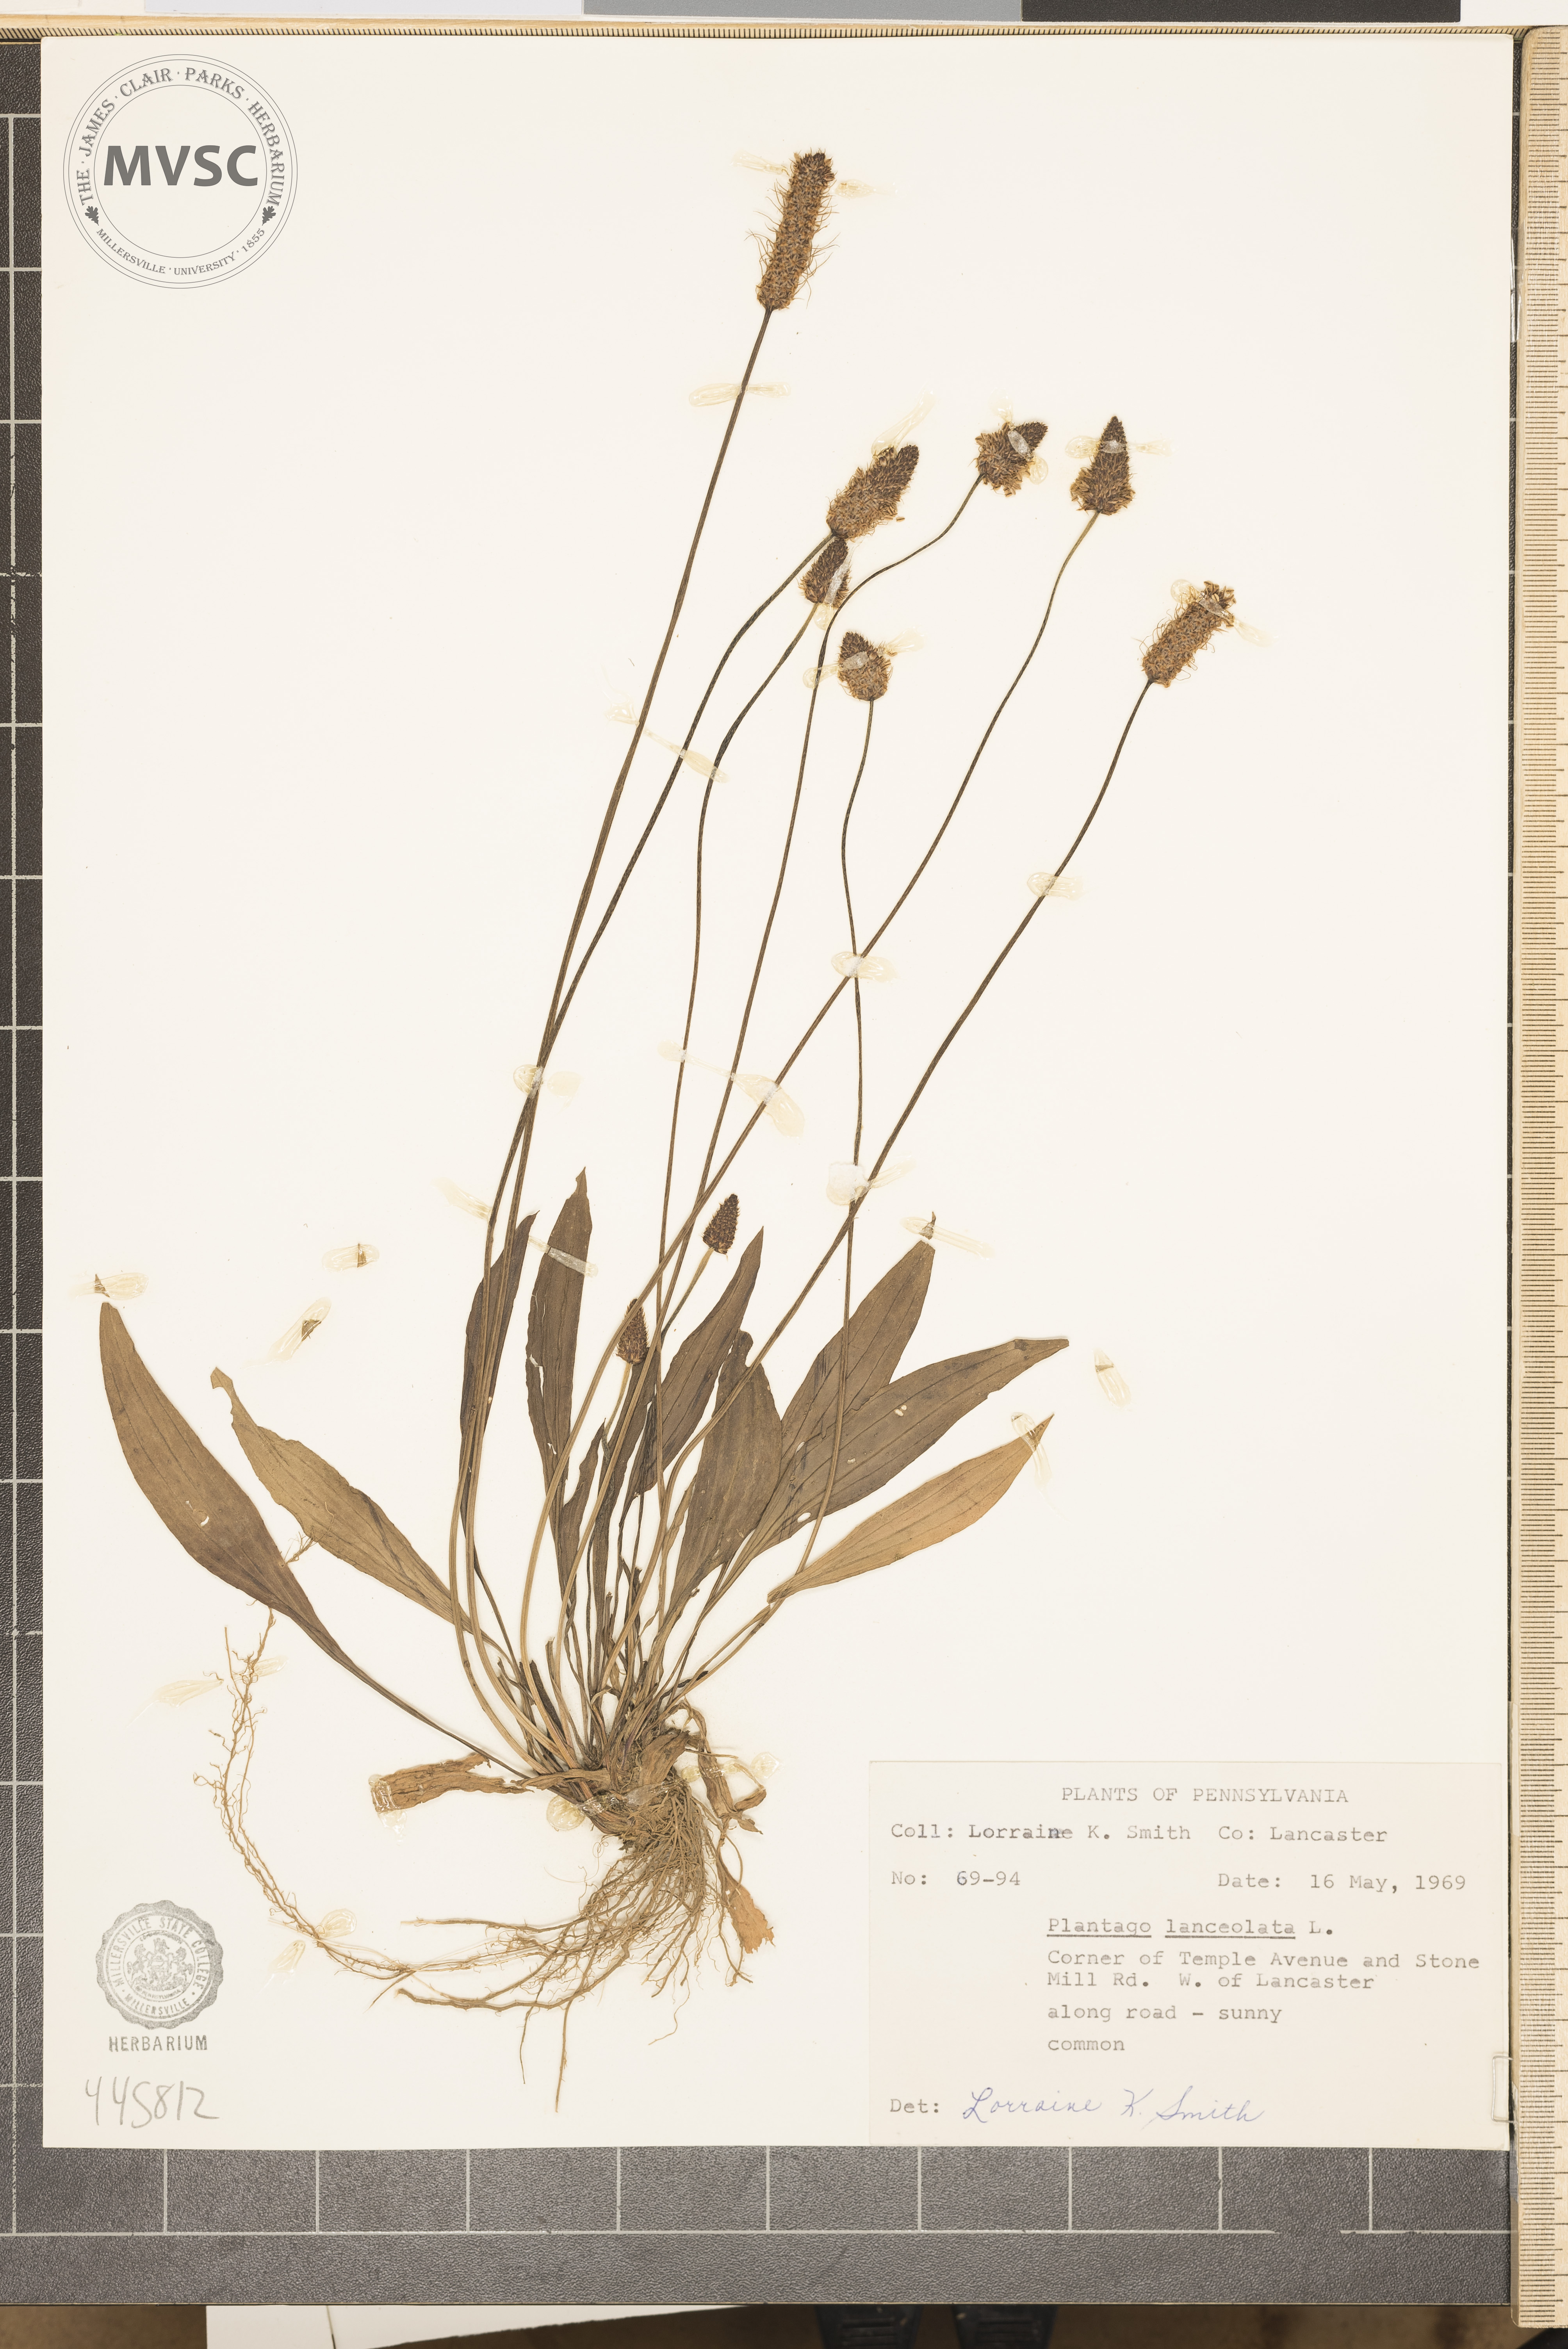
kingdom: Plantae
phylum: Tracheophyta
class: Magnoliopsida
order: Lamiales
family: Plantaginaceae
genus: Plantago
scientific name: Plantago lanceolata
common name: Ribwort plantain
